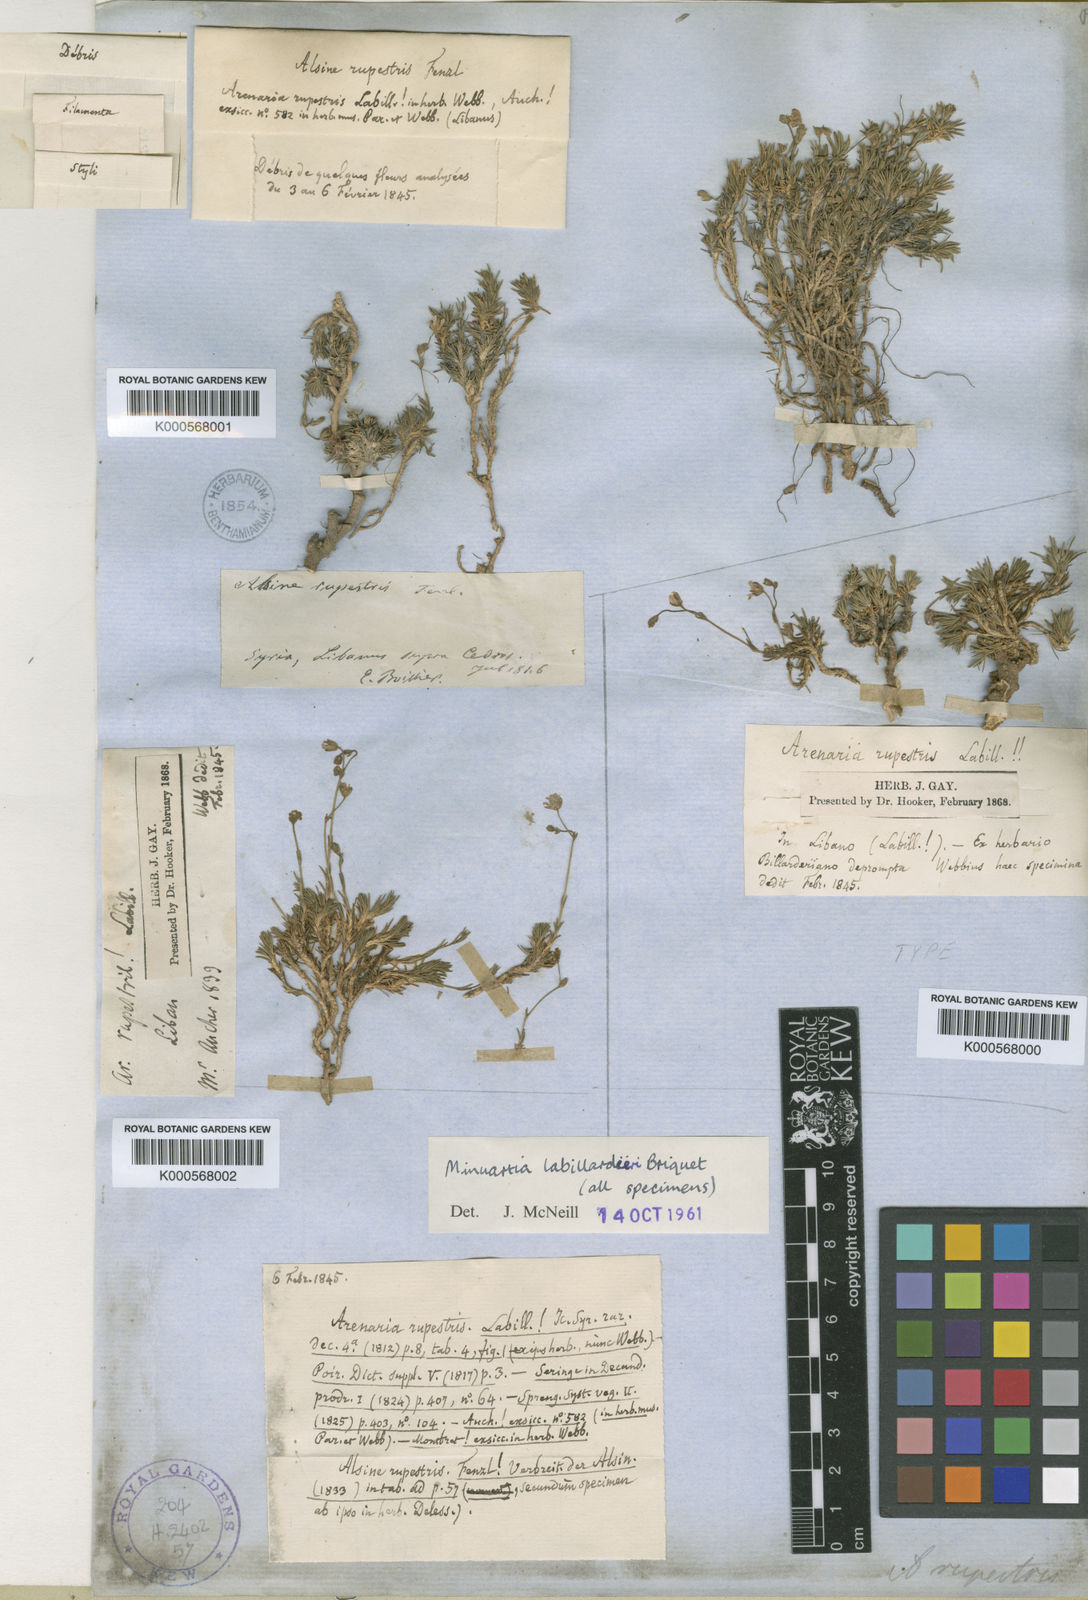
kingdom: Plantae
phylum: Tracheophyta
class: Magnoliopsida
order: Caryophyllales
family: Caryophyllaceae
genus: Cherleria
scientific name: Cherleria rupestris
